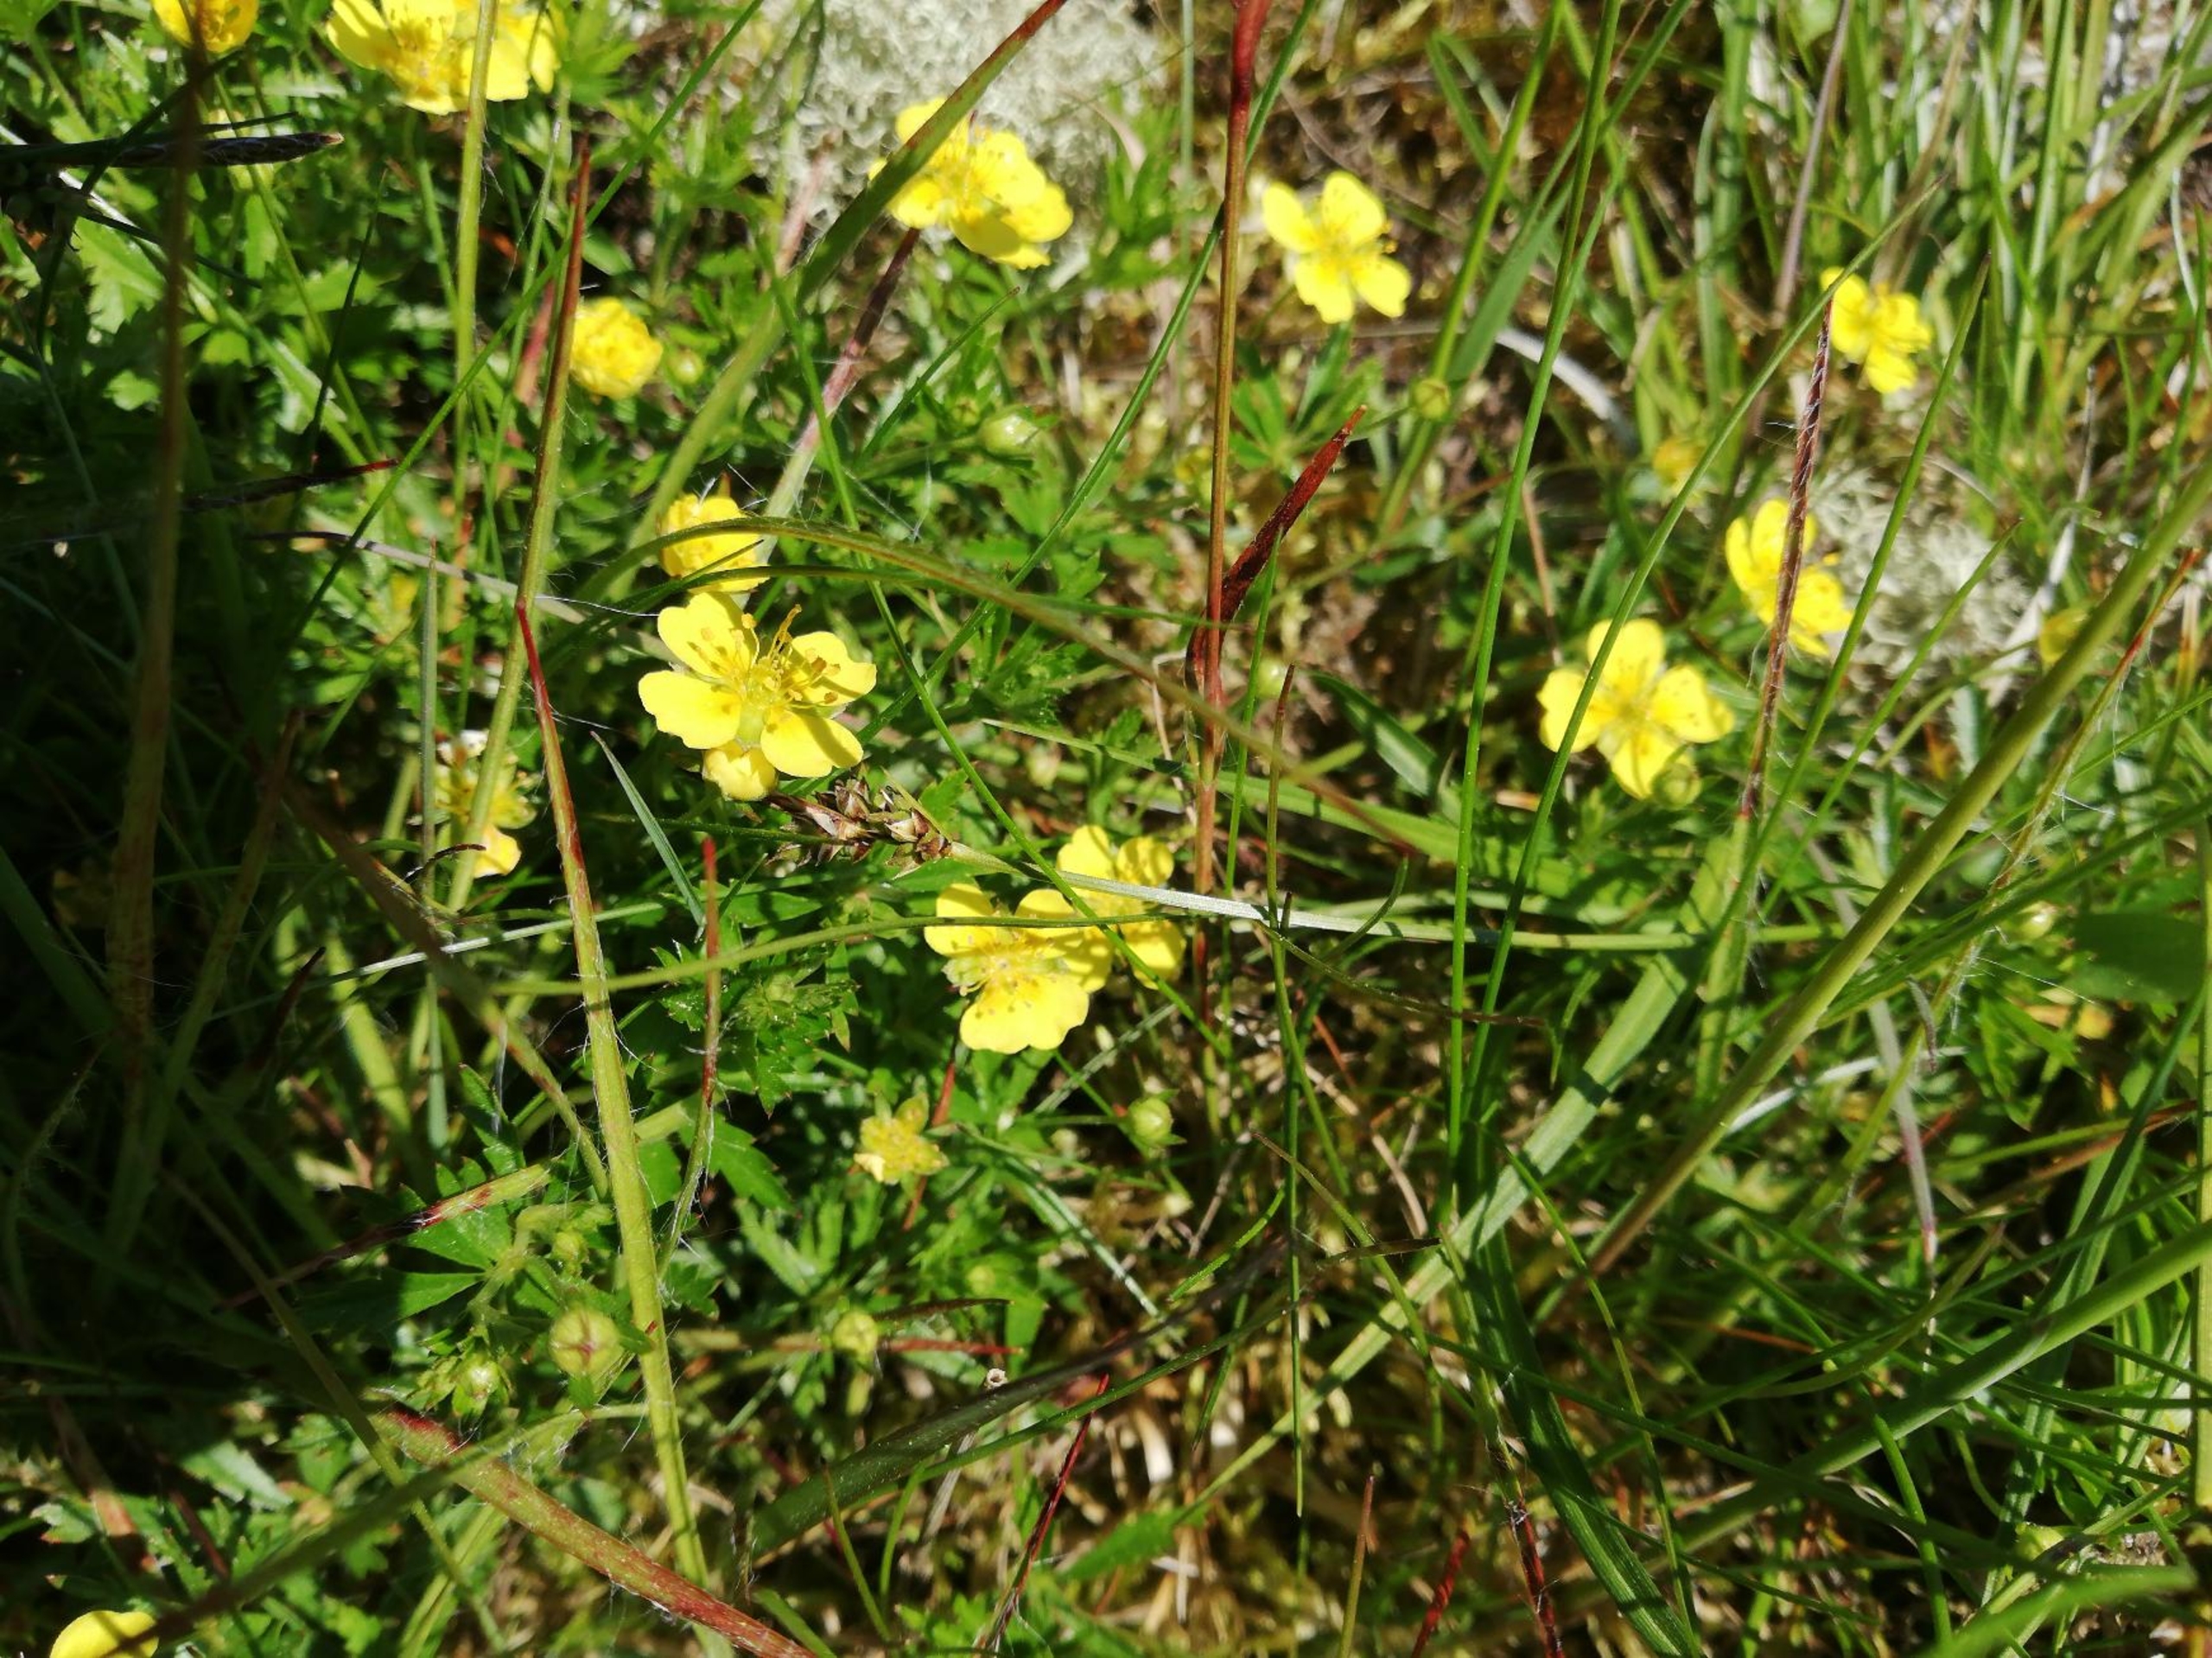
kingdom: Plantae
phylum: Tracheophyta
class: Magnoliopsida
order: Rosales
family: Rosaceae
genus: Potentilla
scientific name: Potentilla erecta
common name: Tormentil
